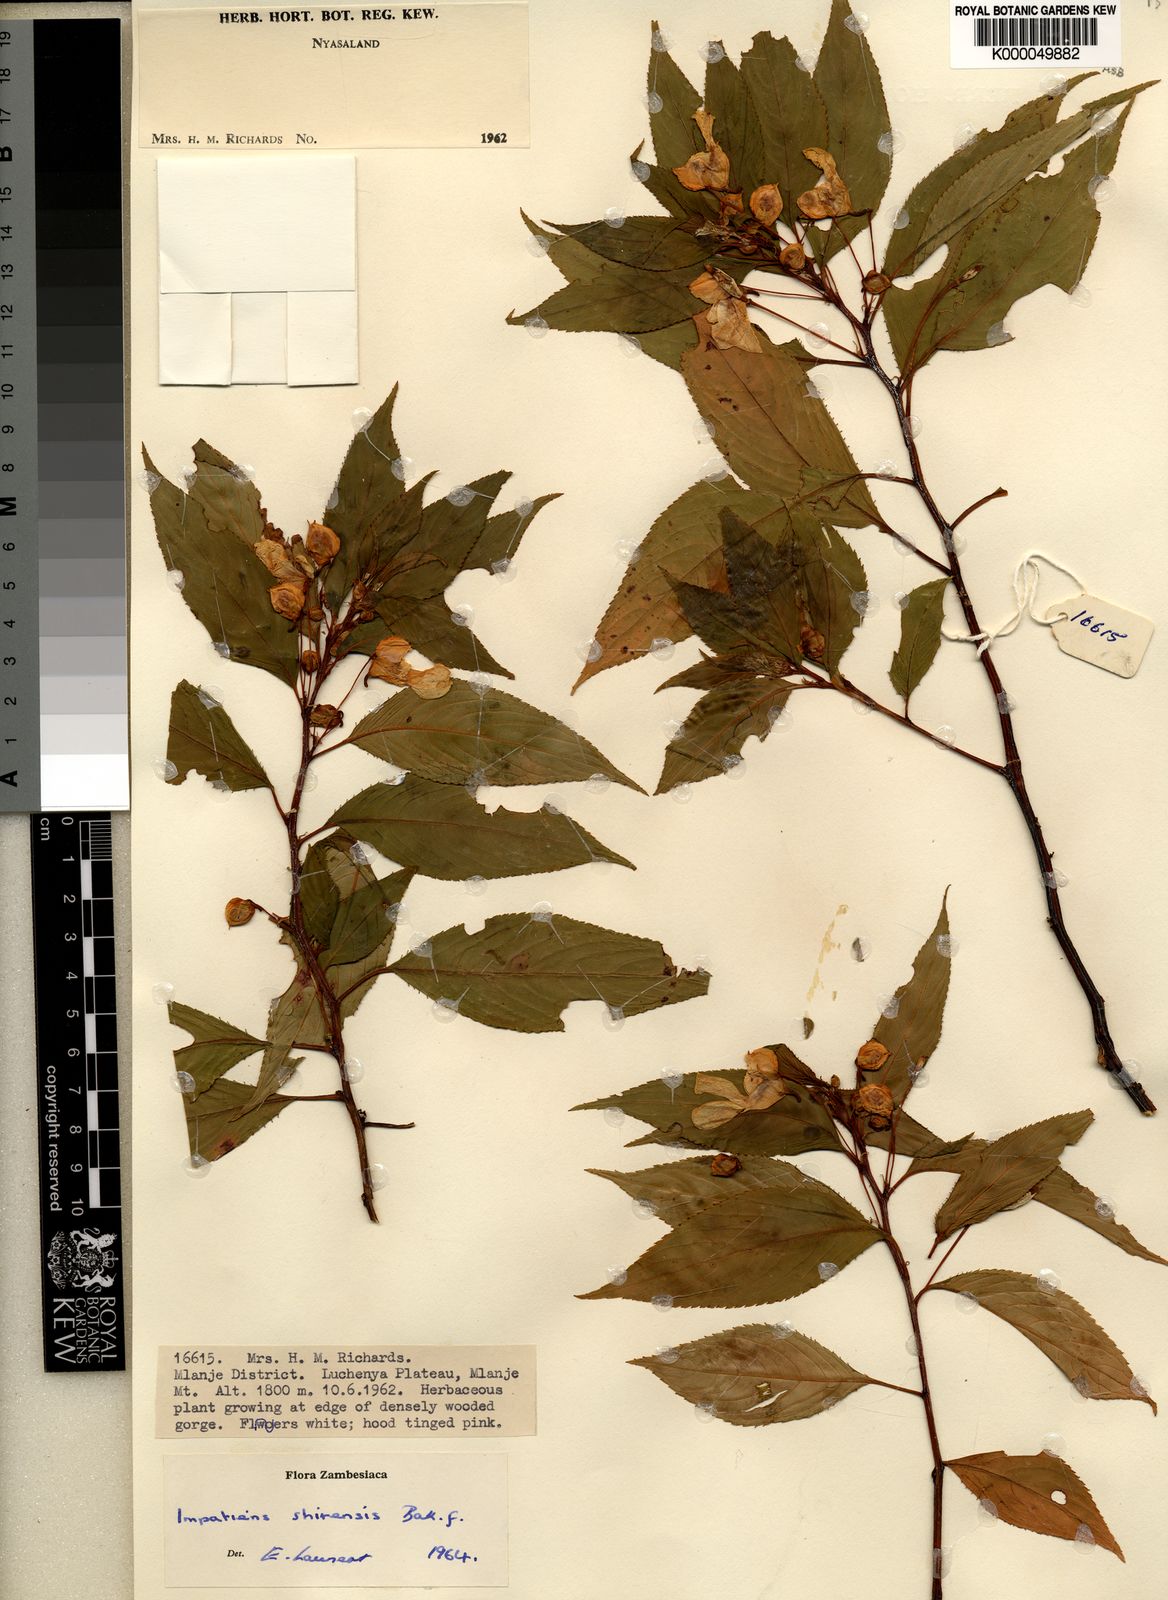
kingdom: Plantae
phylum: Tracheophyta
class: Magnoliopsida
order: Ericales
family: Balsaminaceae
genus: Impatiens
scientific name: Impatiens shirensis
